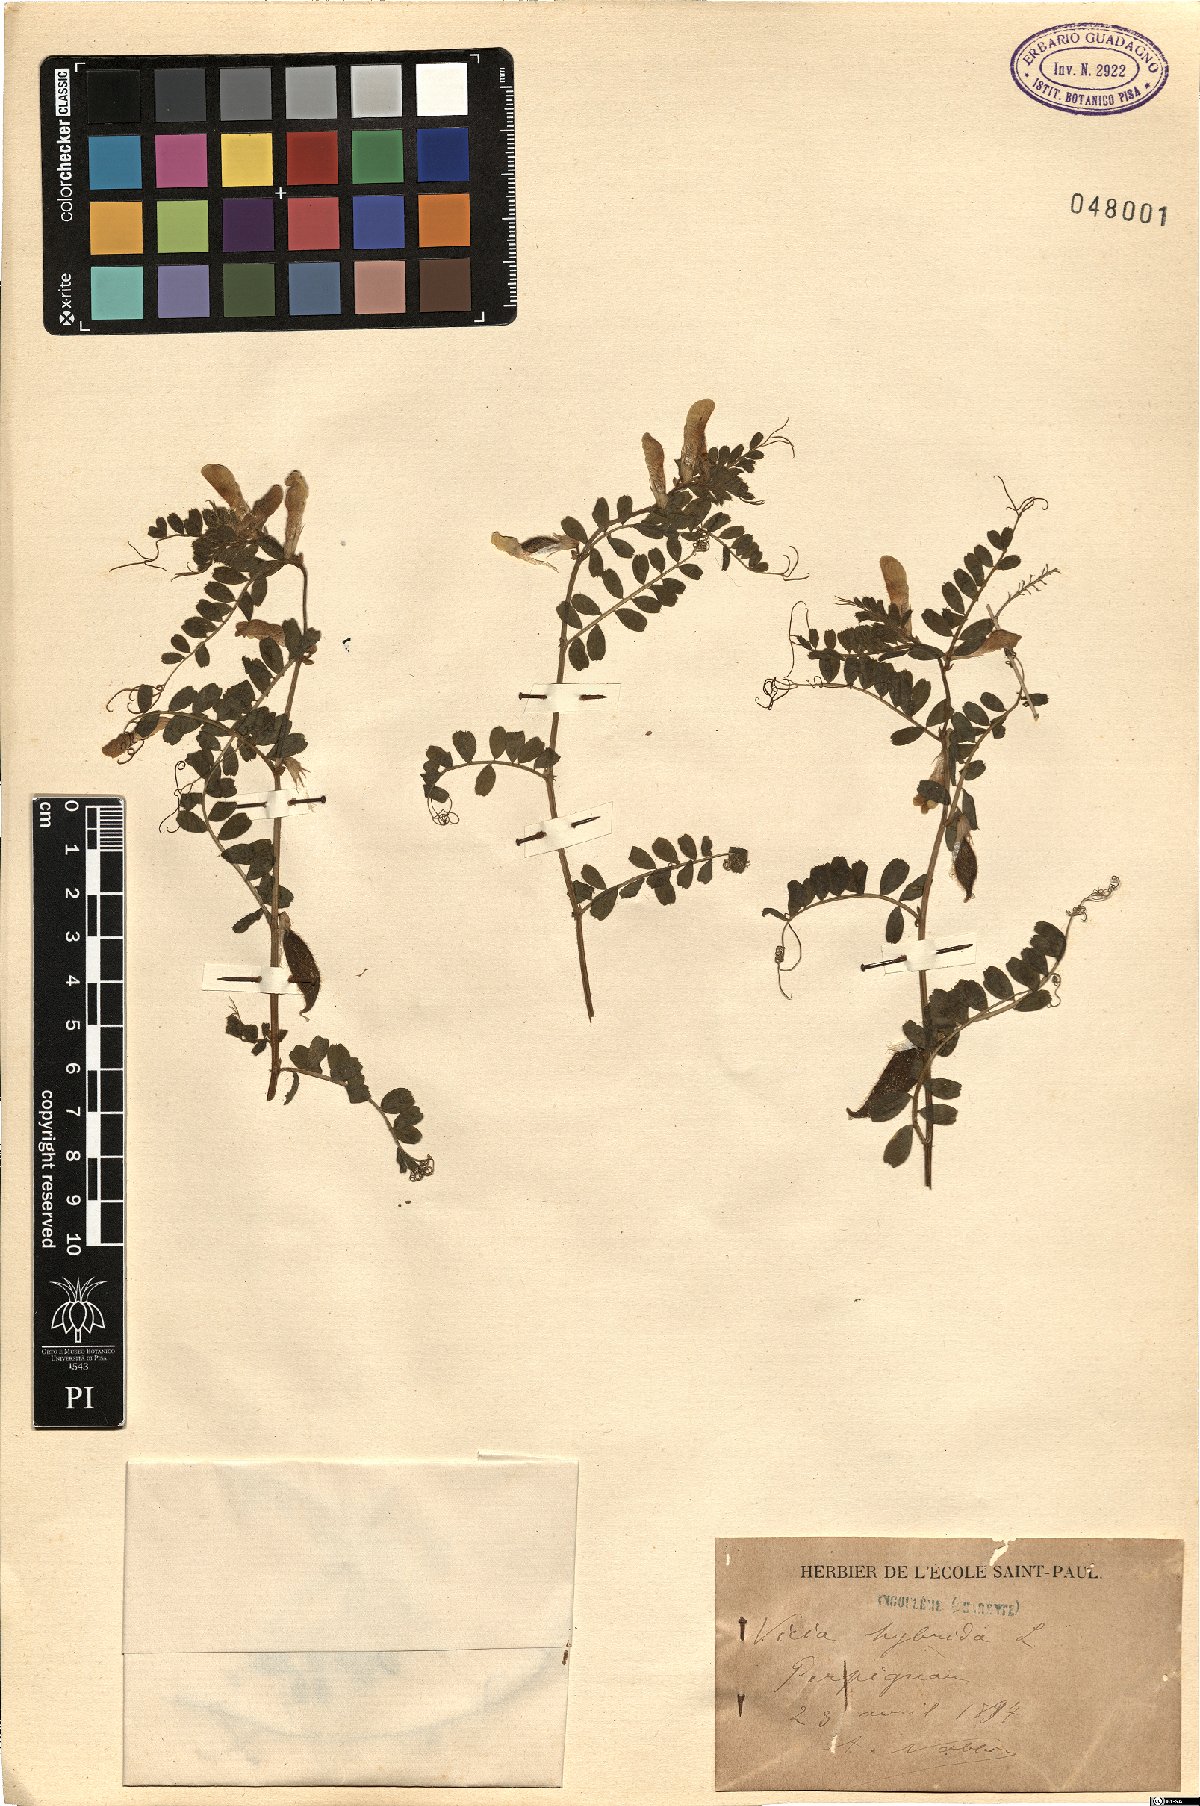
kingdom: Plantae
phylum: Tracheophyta
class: Magnoliopsida
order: Fabales
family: Fabaceae
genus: Vicia
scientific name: Vicia hybrida
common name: Hairy yellow vetch
